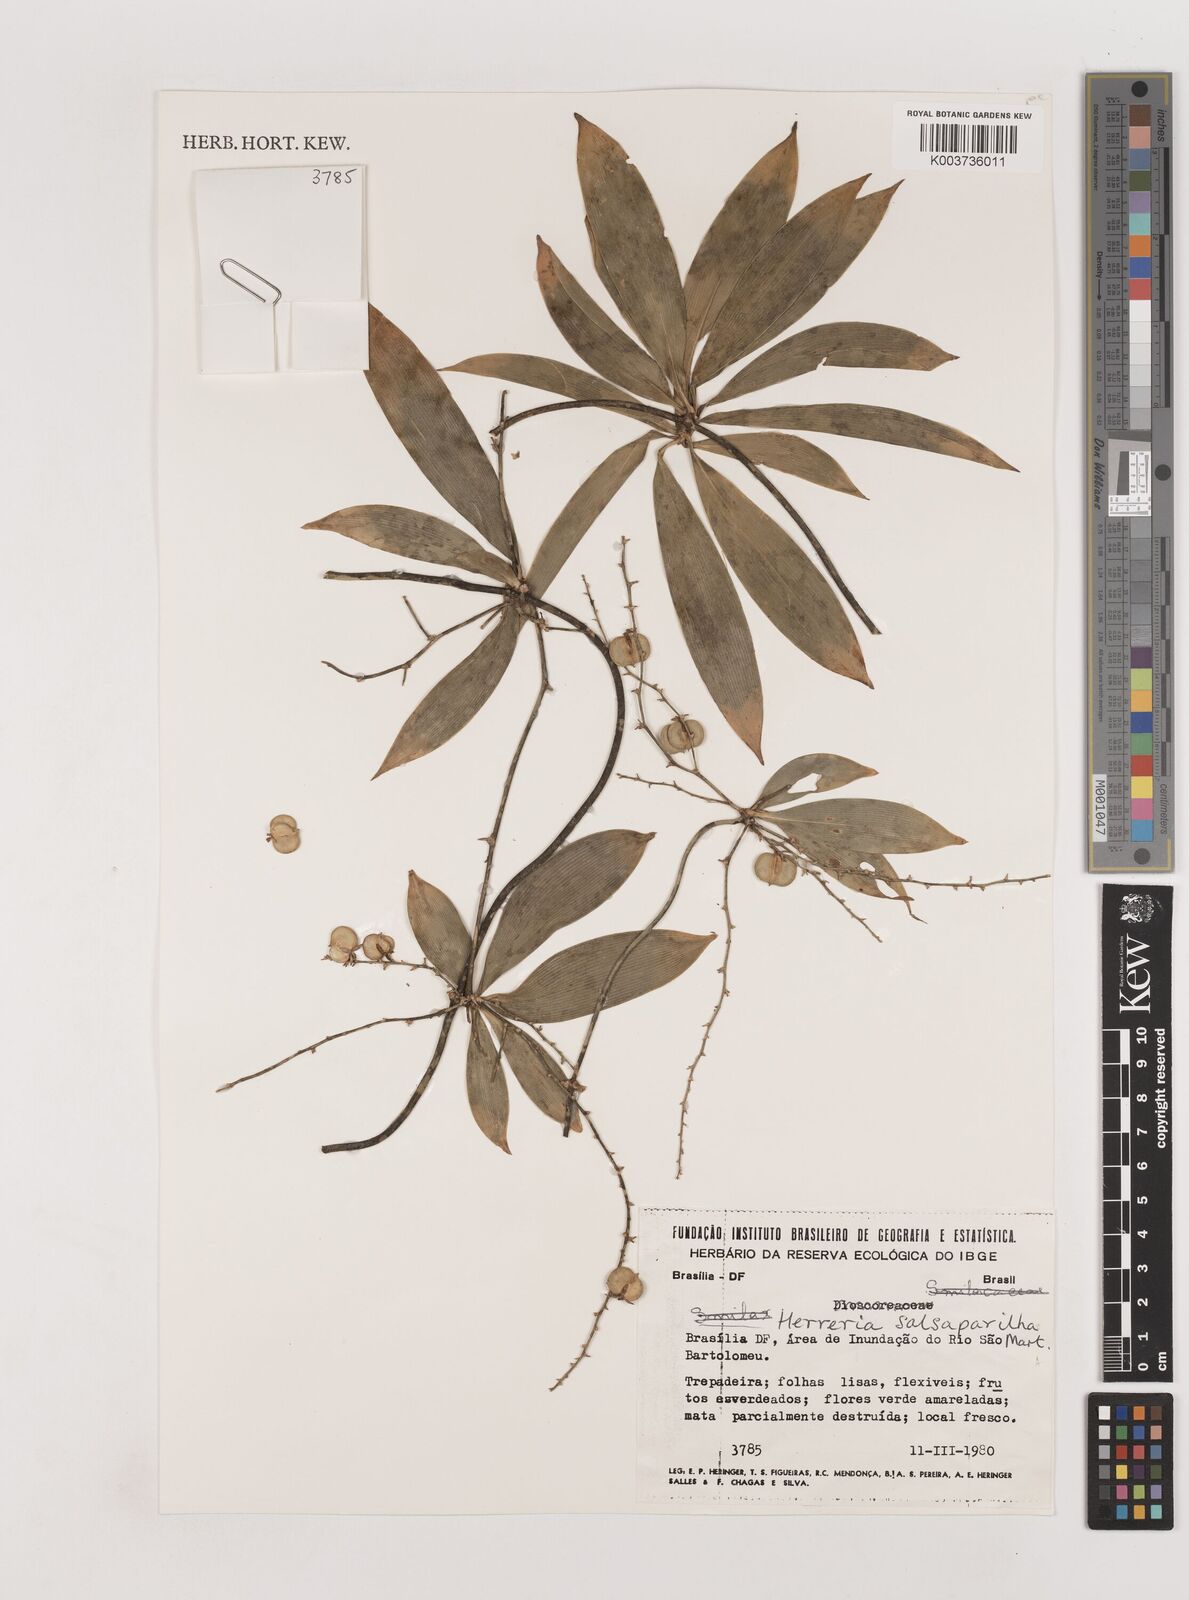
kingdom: Plantae
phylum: Tracheophyta
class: Liliopsida
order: Asparagales
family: Asparagaceae
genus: Herreria
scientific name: Herreria salsaparilha
